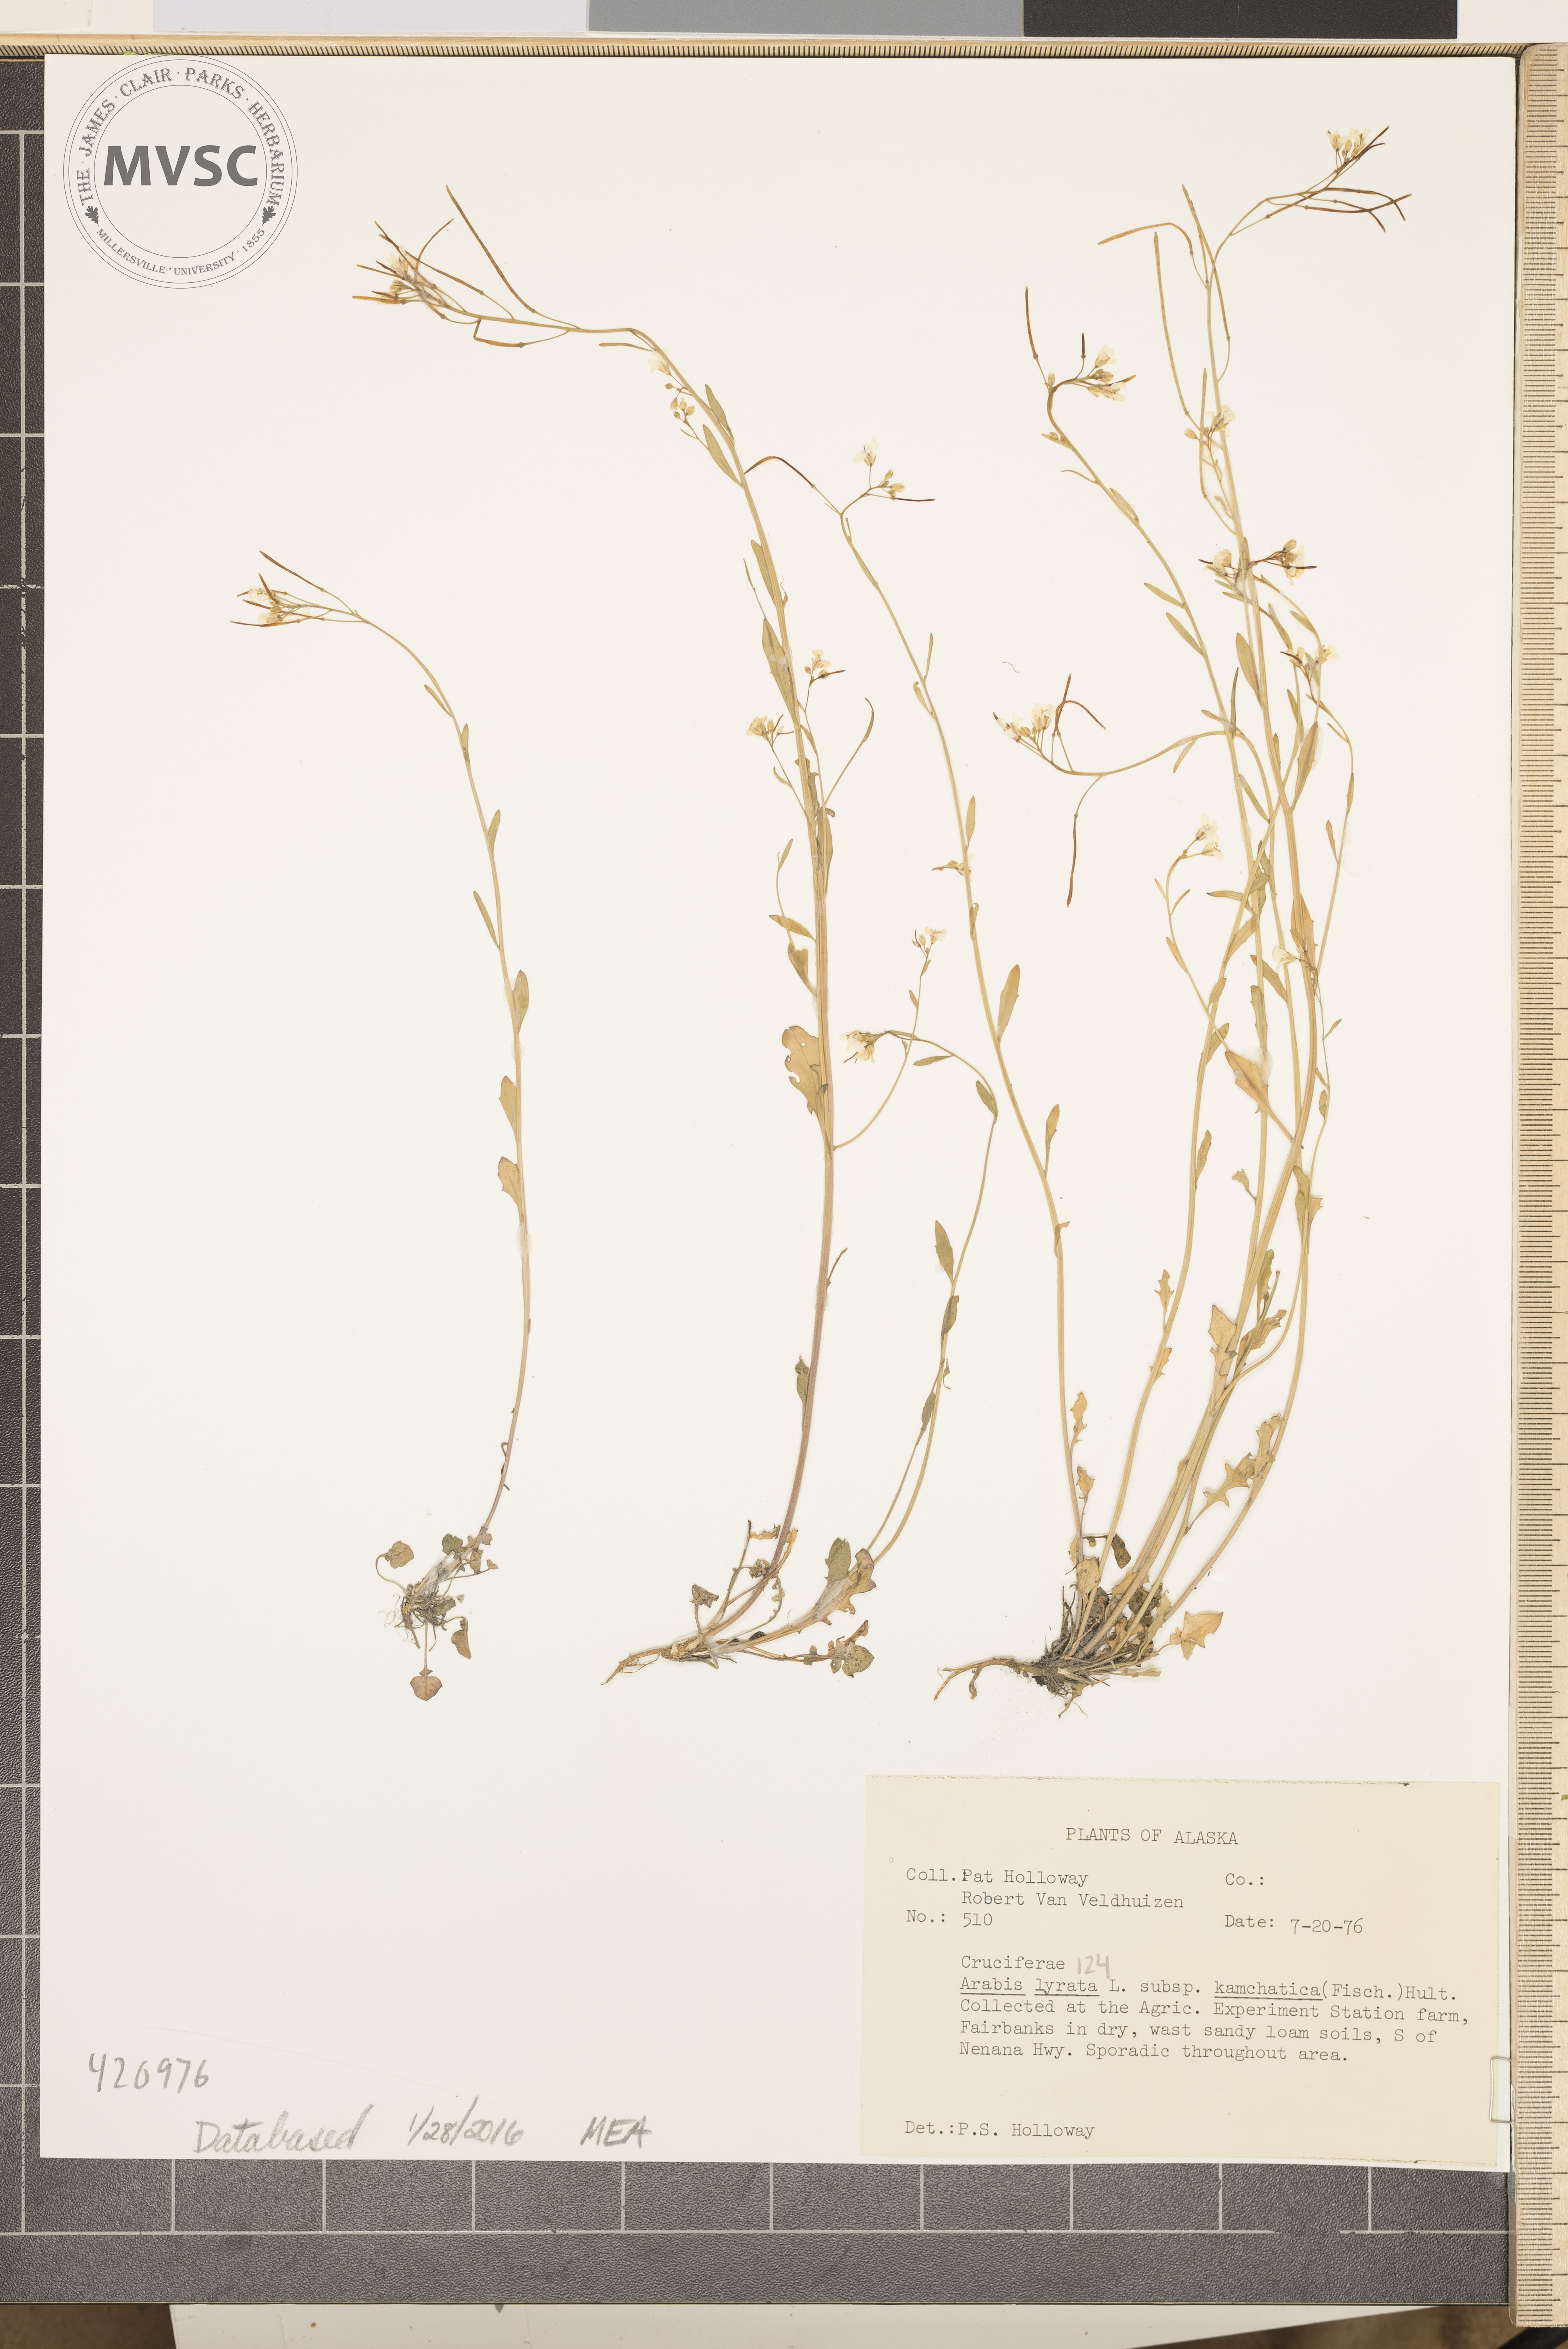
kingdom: Plantae
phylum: Tracheophyta
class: Magnoliopsida
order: Brassicales
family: Brassicaceae
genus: Arabidopsis
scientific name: Arabidopsis lyrata
